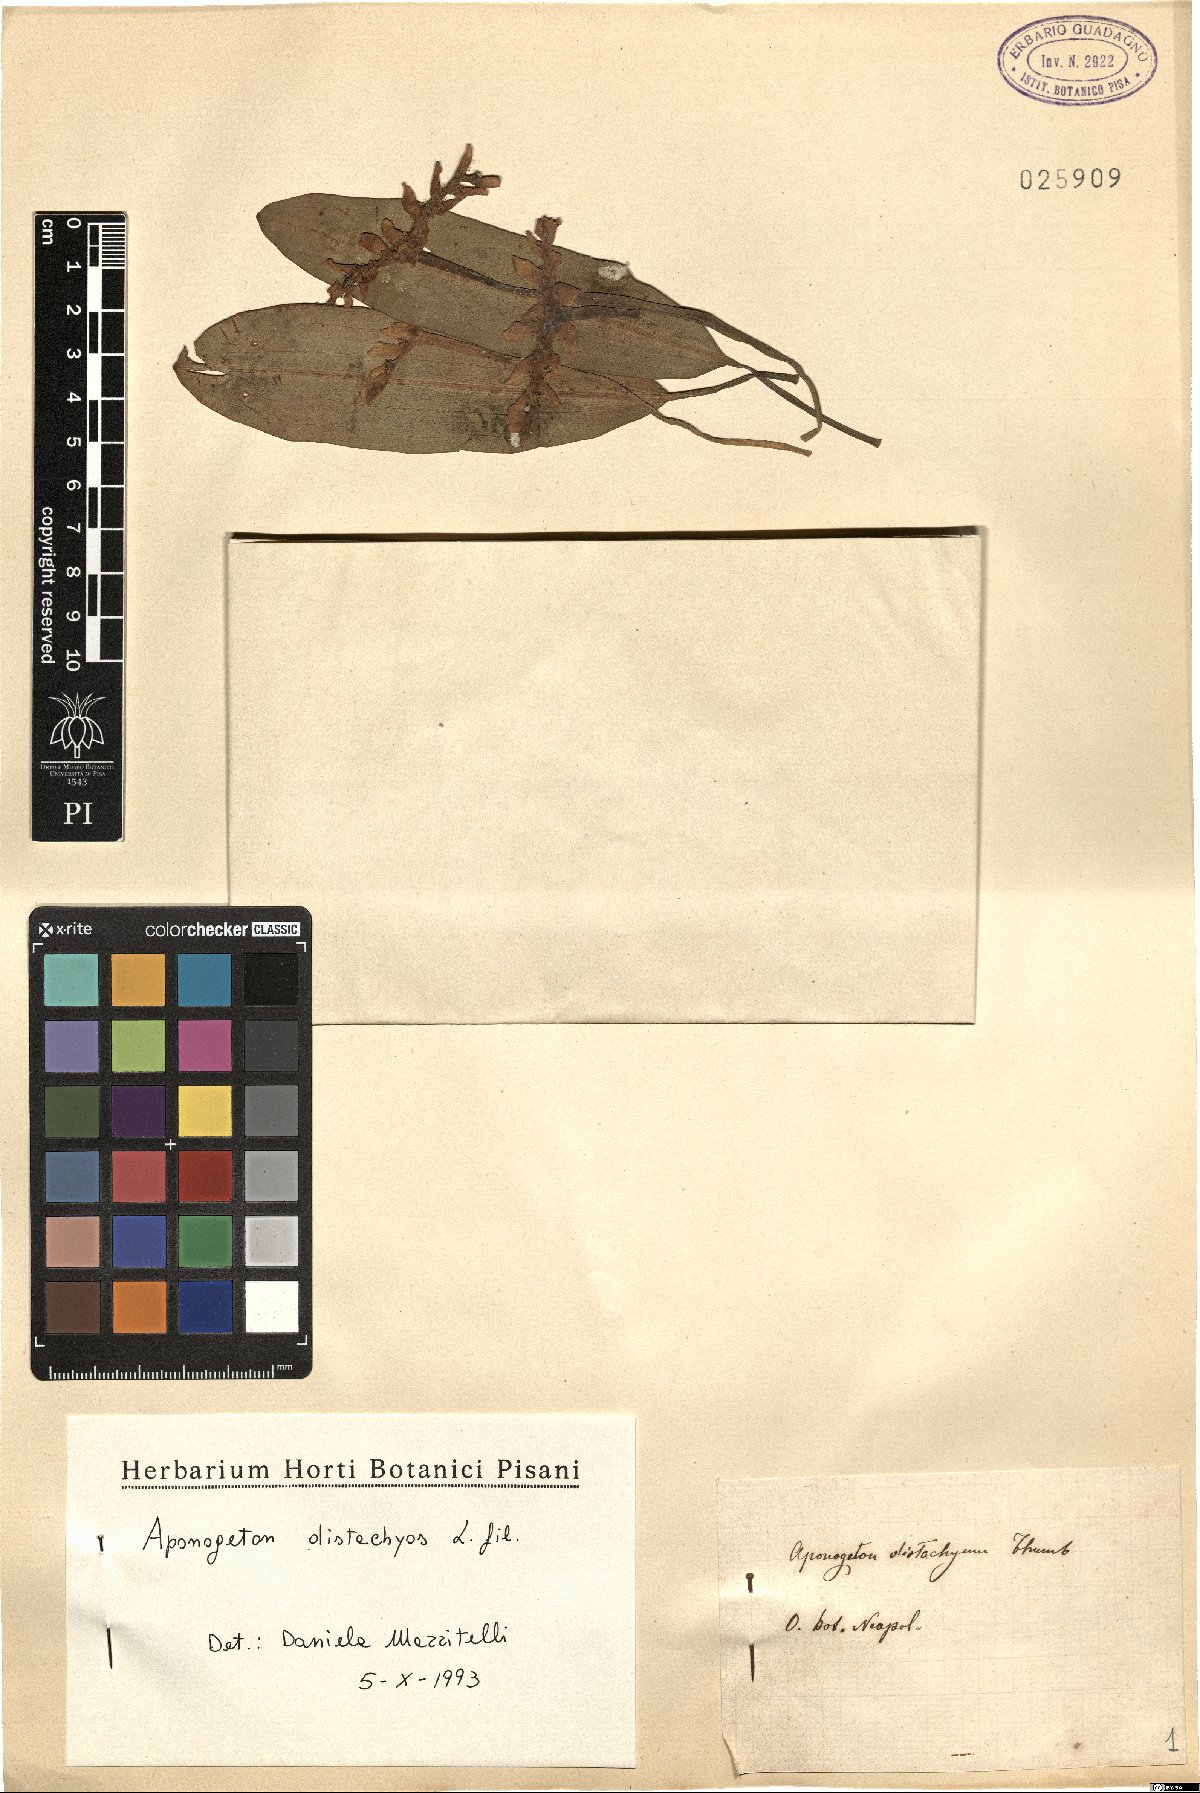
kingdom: Plantae
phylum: Tracheophyta
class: Liliopsida
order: Alismatales
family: Aponogetonaceae
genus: Aponogeton
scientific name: Aponogeton distachyos
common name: Cape-pondweed
